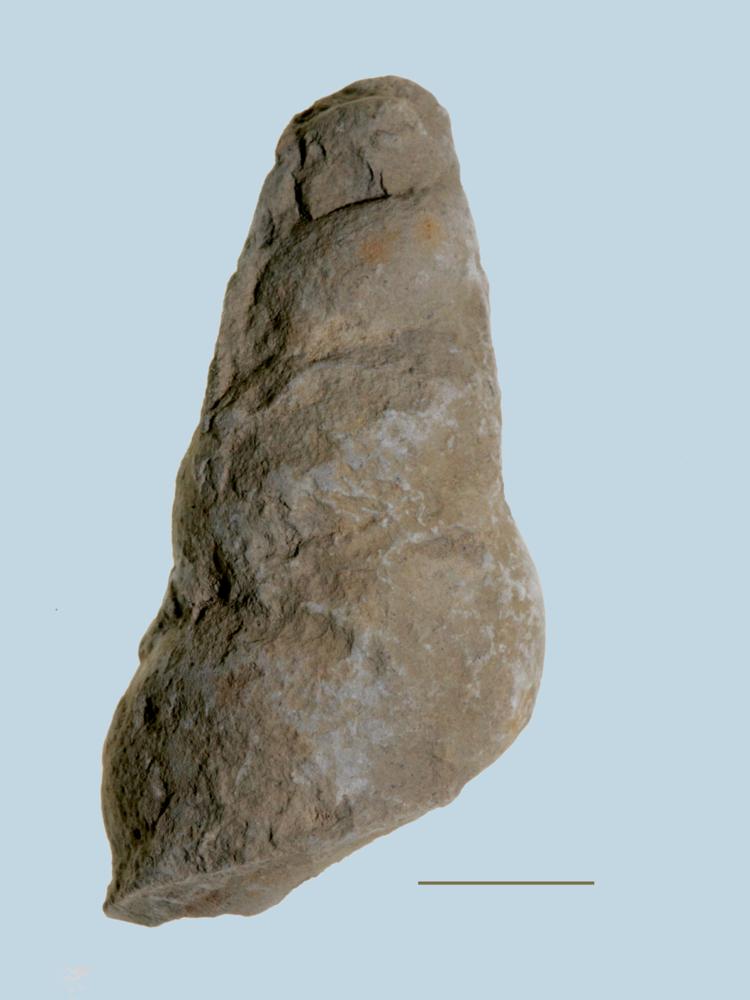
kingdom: Animalia
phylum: Mollusca
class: Gastropoda
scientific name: Gastropoda
